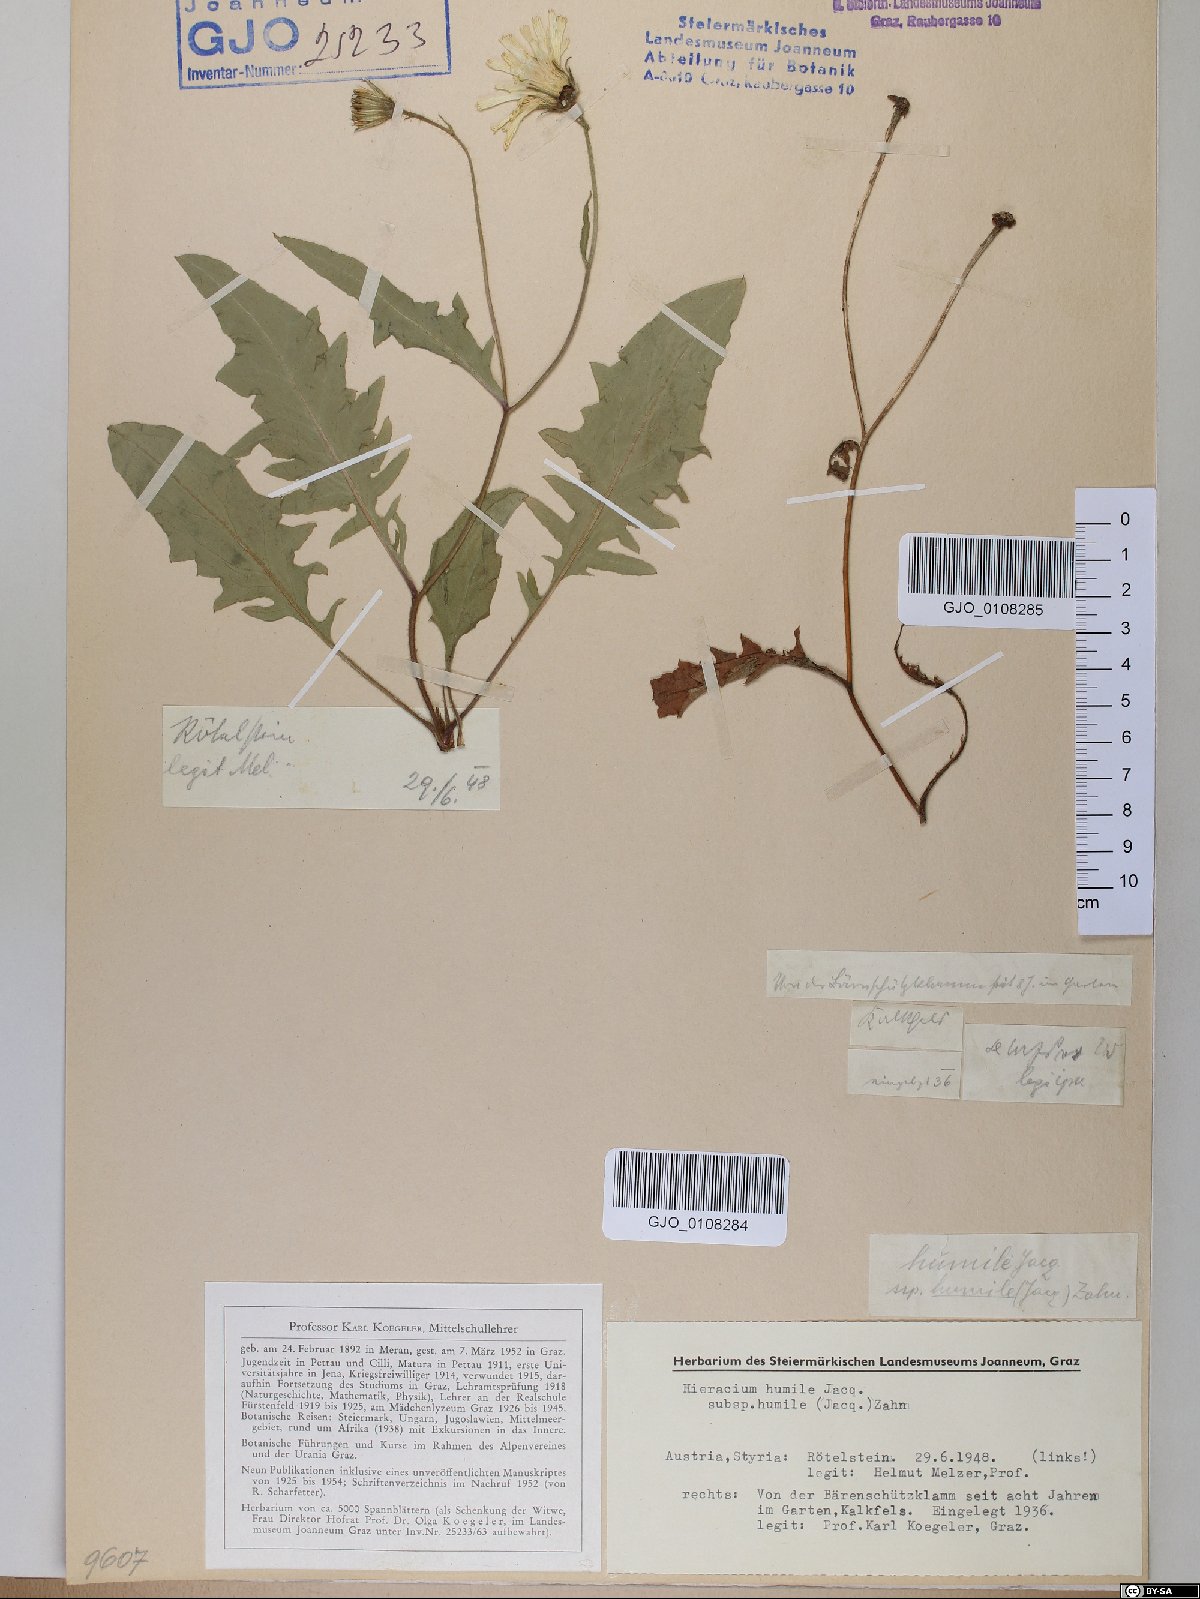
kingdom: Plantae
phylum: Tracheophyta
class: Magnoliopsida
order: Asterales
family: Asteraceae
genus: Hieracium
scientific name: Hieracium humile
